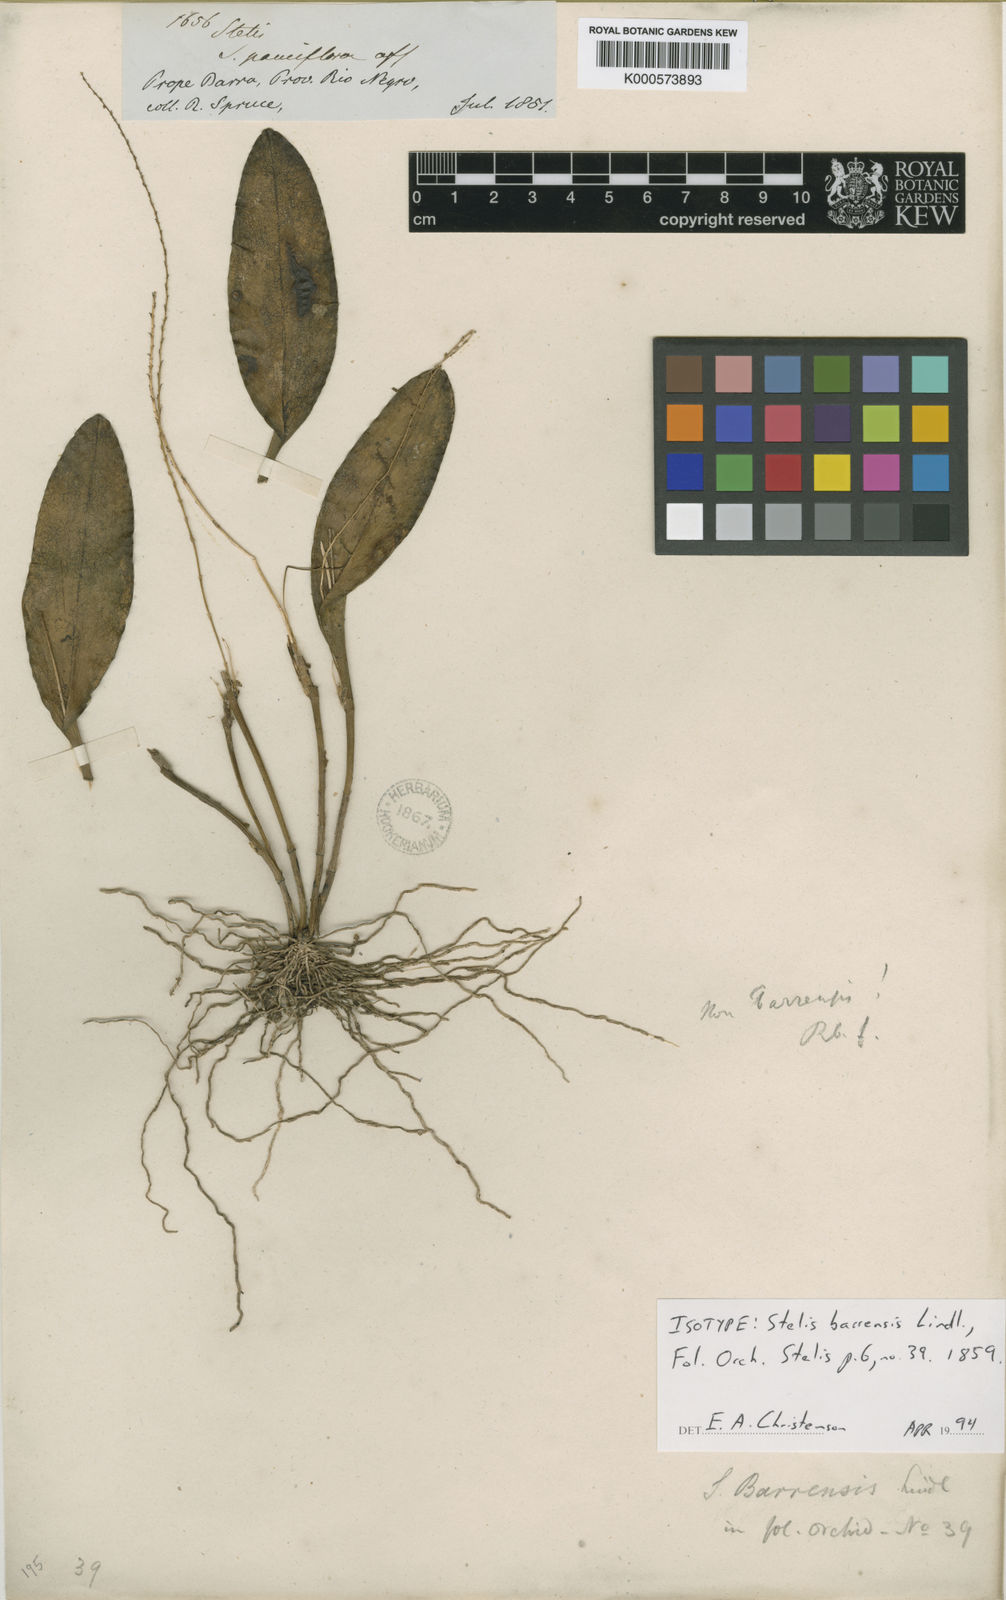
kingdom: Plantae
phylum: Tracheophyta
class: Liliopsida
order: Asparagales
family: Orchidaceae
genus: Stelis
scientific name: Stelis papaquerensis
